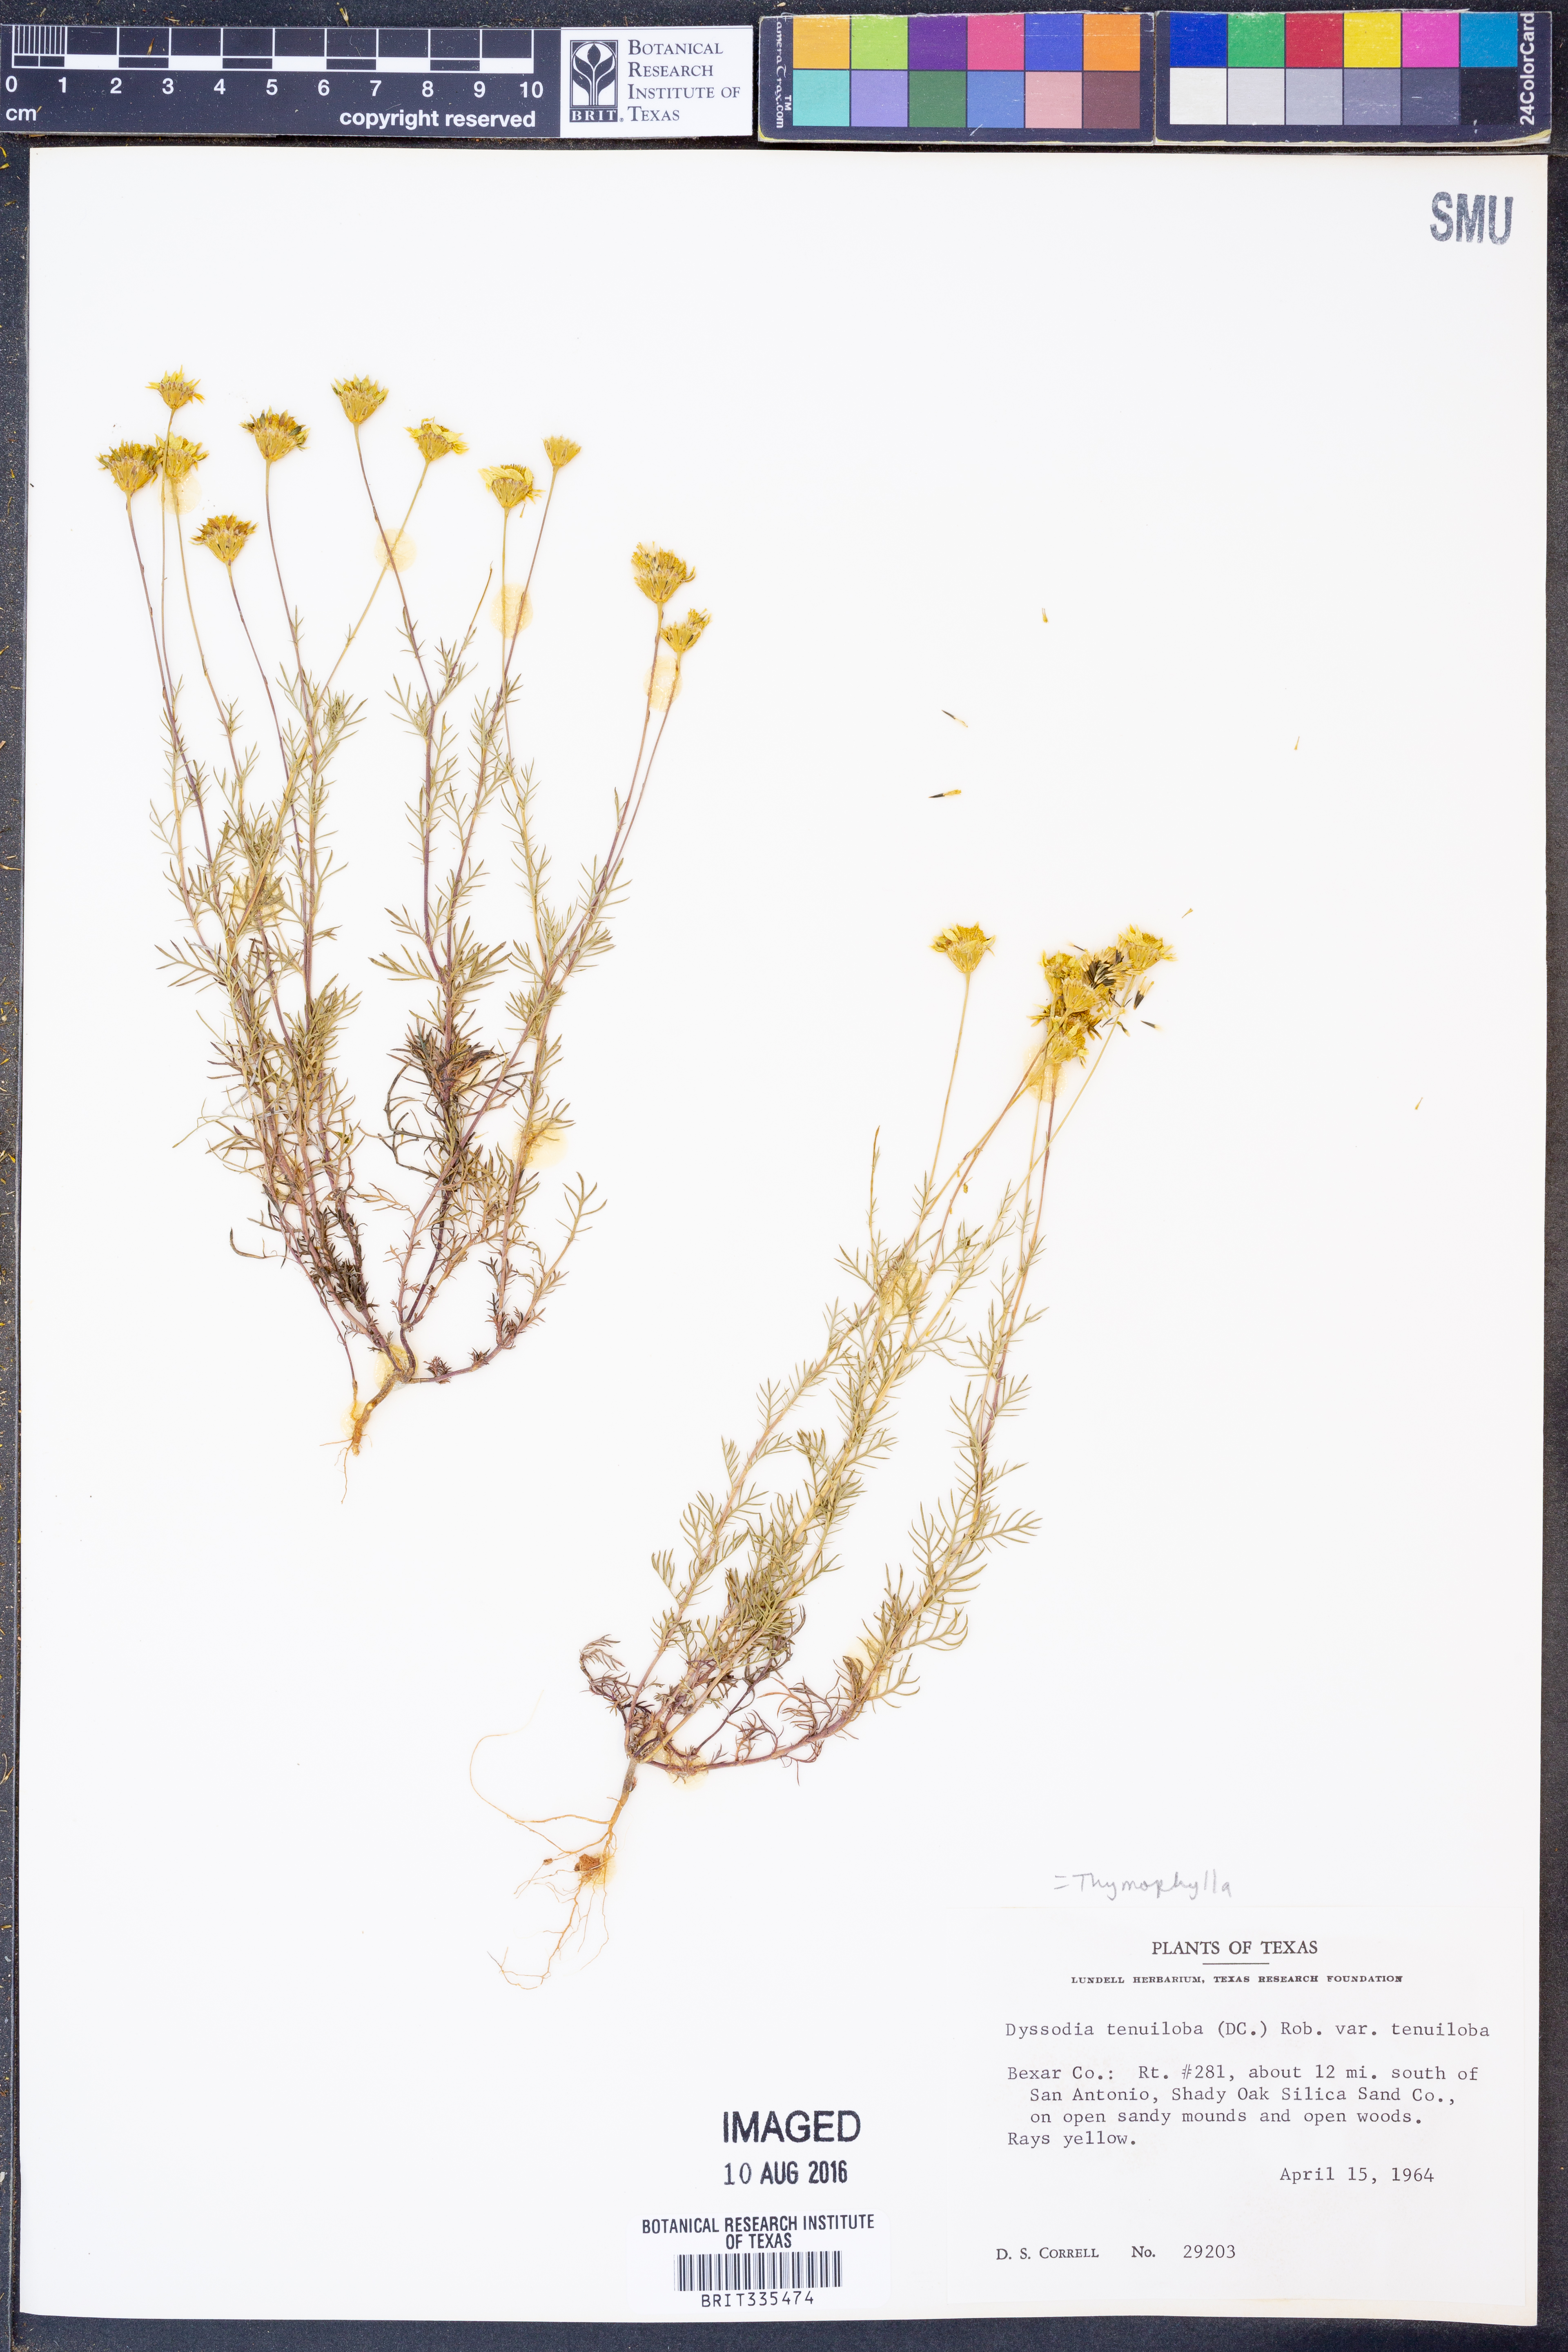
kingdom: Plantae
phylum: Tracheophyta
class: Magnoliopsida
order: Asterales
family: Asteraceae
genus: Thymophylla
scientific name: Thymophylla tenuiloba
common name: Dahlberg's daisy
